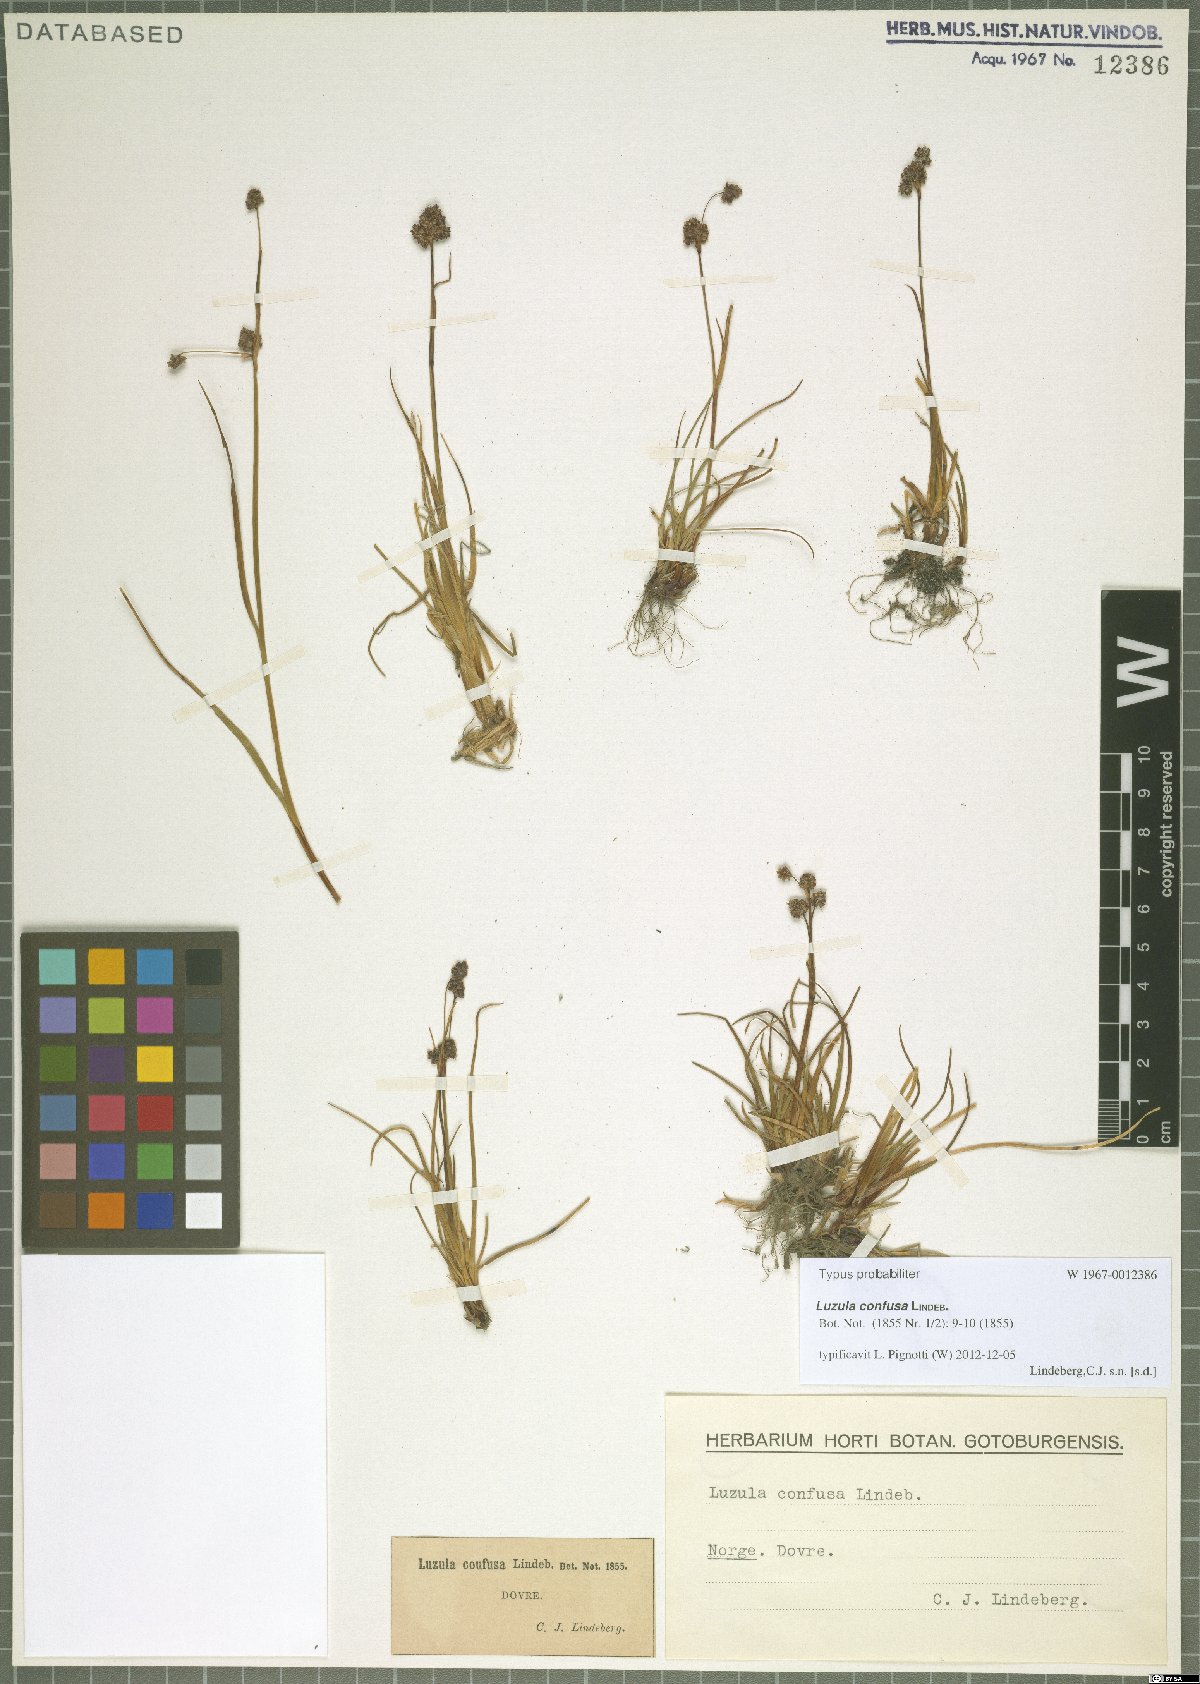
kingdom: Plantae
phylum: Tracheophyta
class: Liliopsida
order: Poales
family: Juncaceae
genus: Luzula
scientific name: Luzula confusa
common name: Northern wood rush
